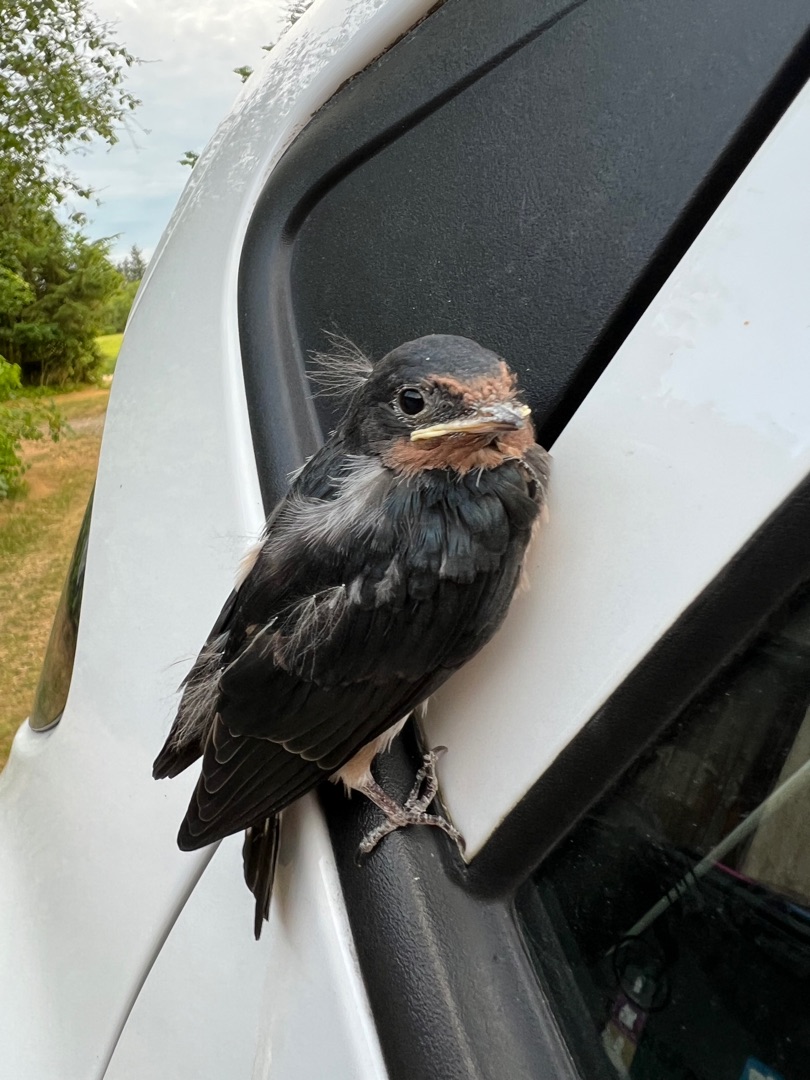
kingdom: Animalia
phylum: Chordata
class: Aves
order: Passeriformes
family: Hirundinidae
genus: Hirundo
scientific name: Hirundo rustica
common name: Landsvale
